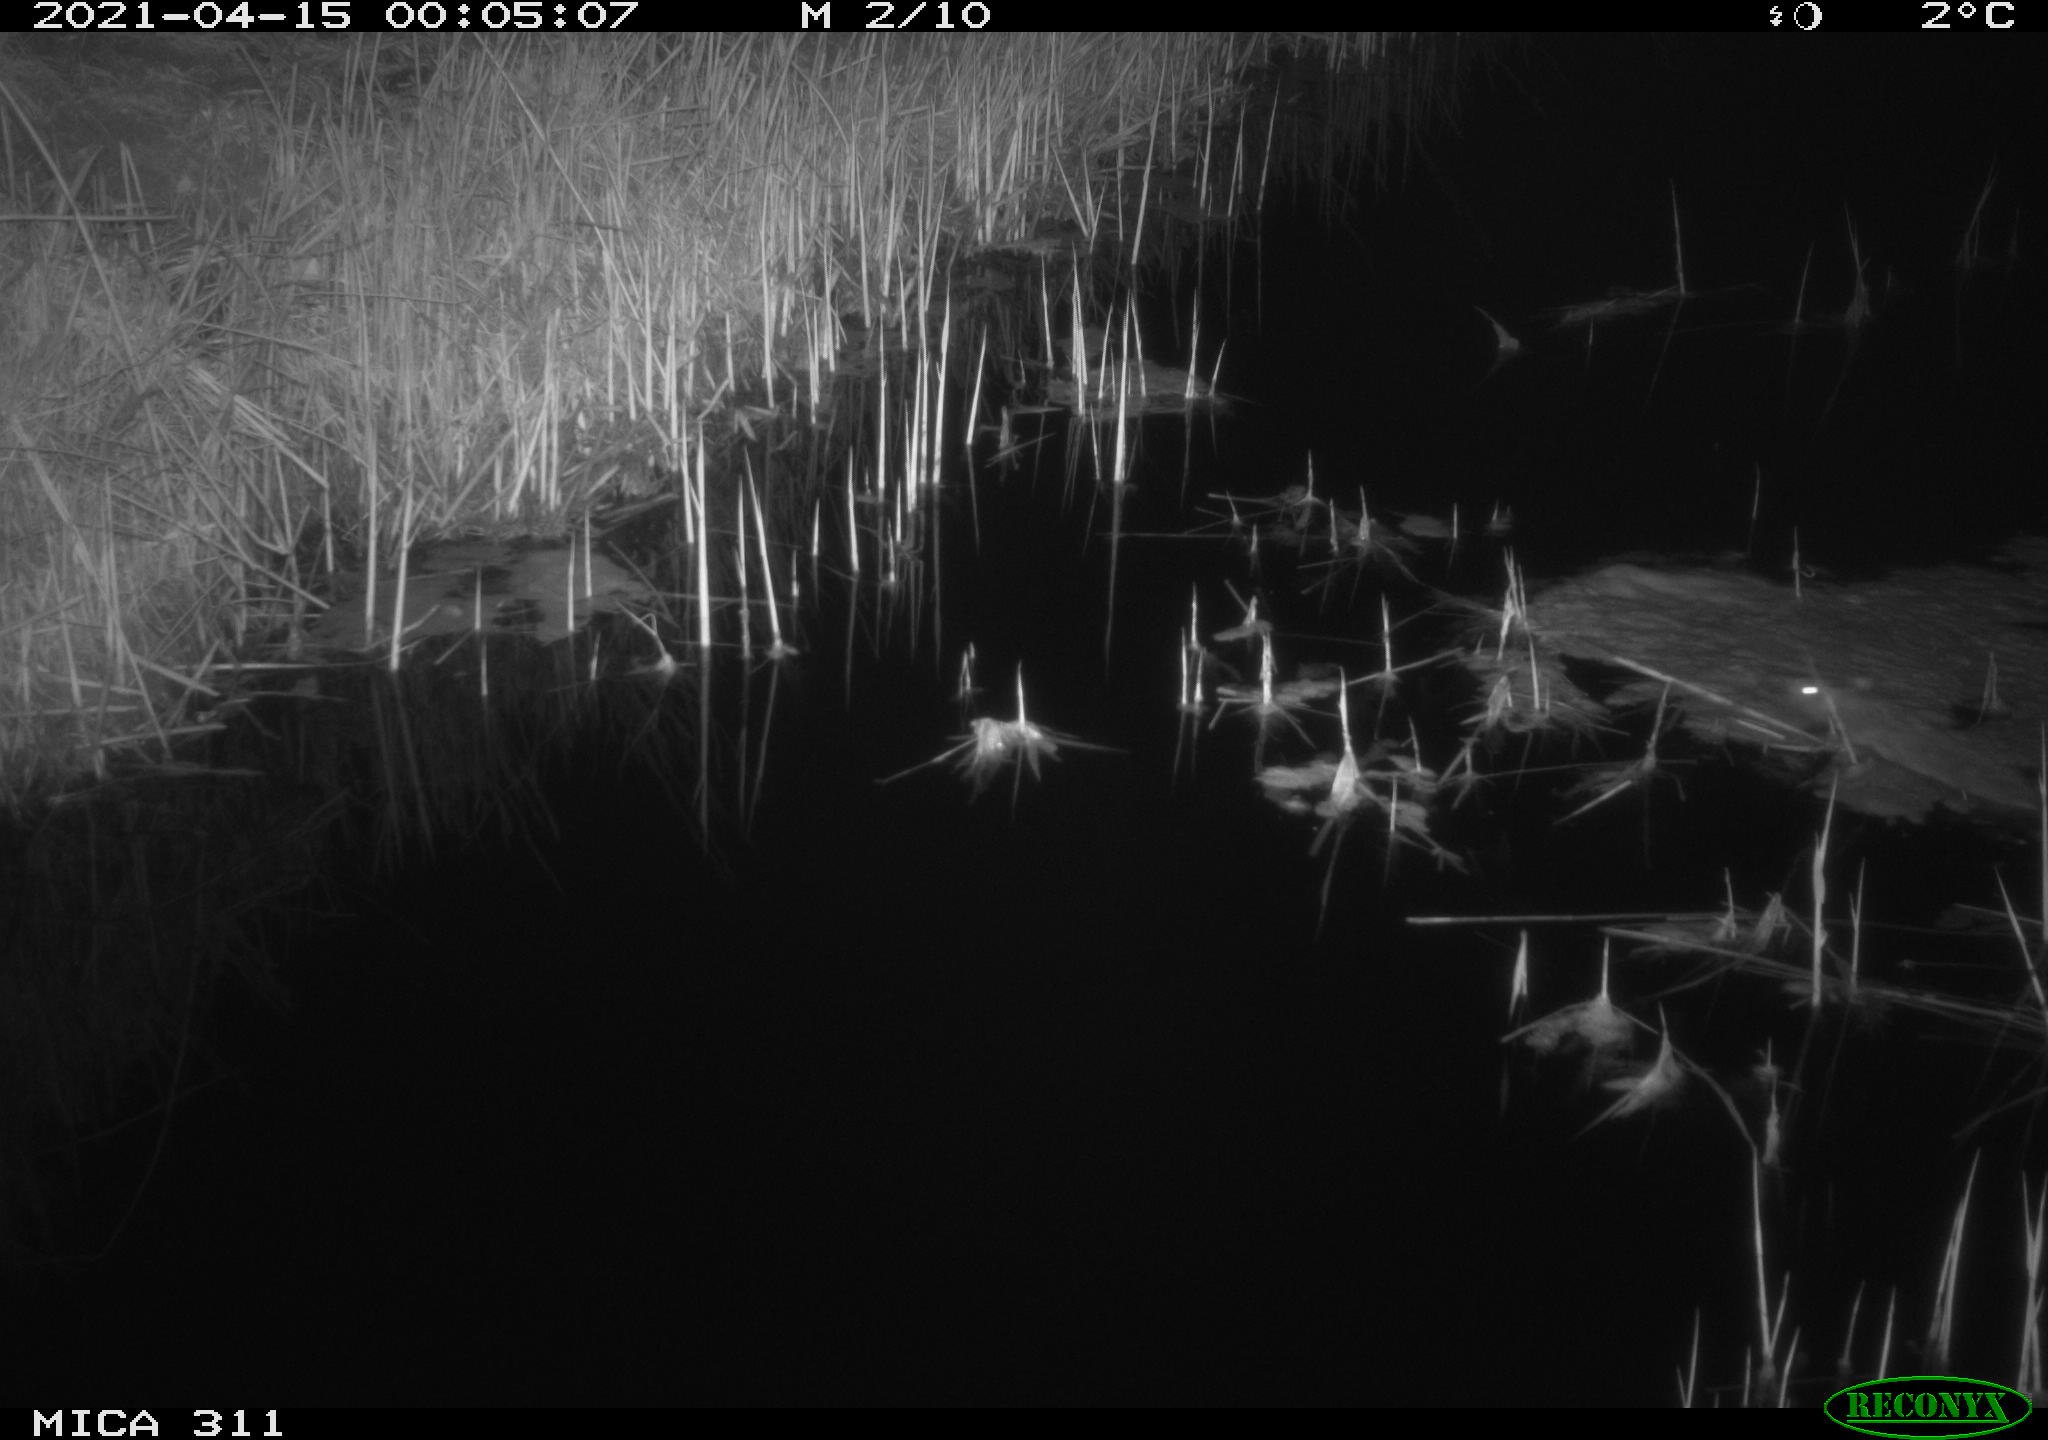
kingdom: Animalia
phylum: Chordata
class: Mammalia
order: Rodentia
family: Muridae
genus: Rattus
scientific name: Rattus norvegicus
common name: Brown rat
